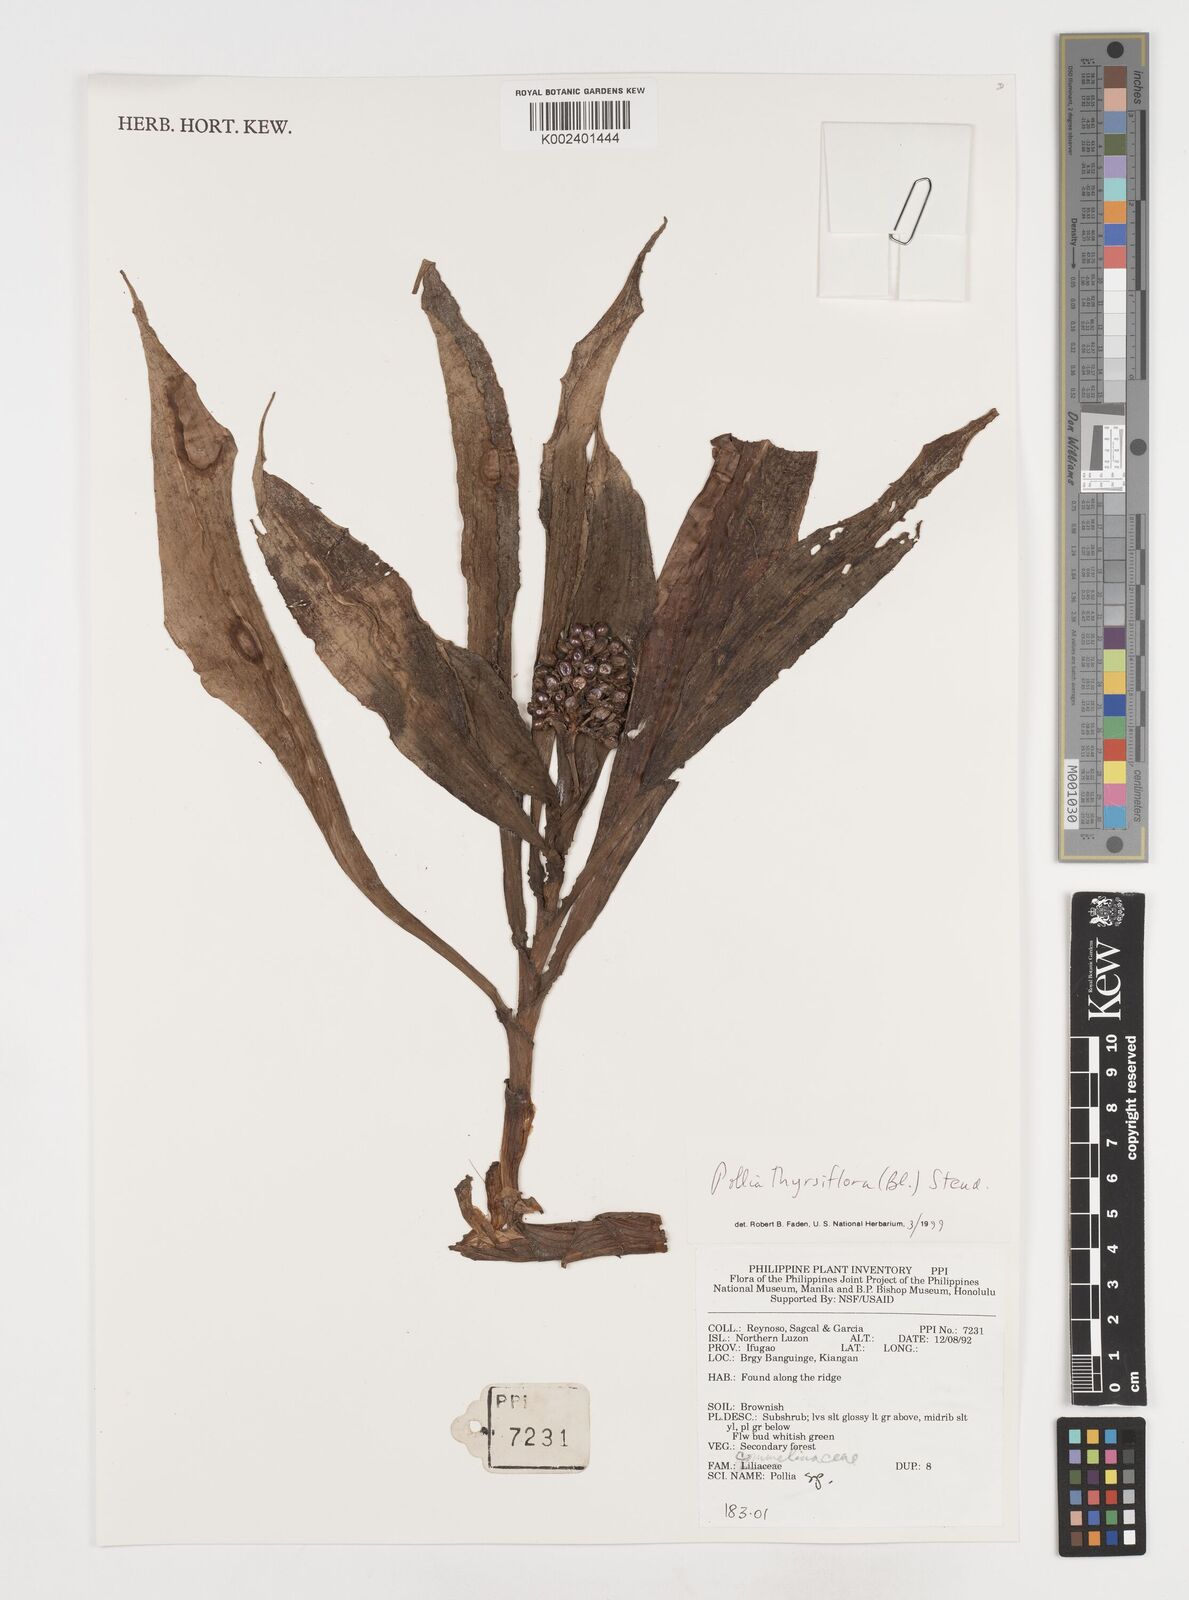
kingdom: Plantae
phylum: Tracheophyta
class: Liliopsida
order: Commelinales
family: Commelinaceae
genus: Pollia
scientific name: Pollia thyrsiflora
